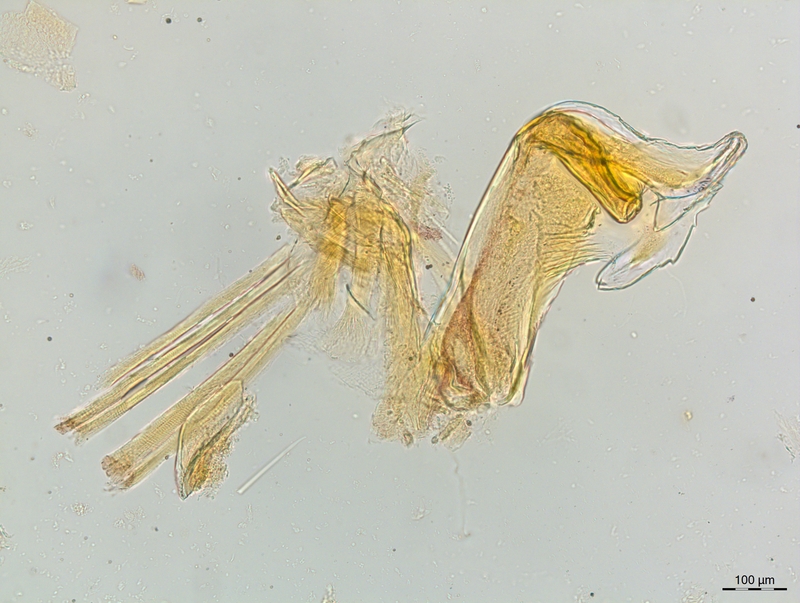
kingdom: Animalia
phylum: Arthropoda
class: Diplopoda
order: Chordeumatida
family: Craspedosomatidae
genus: Craspedosoma
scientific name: Craspedosoma rawlinsii
